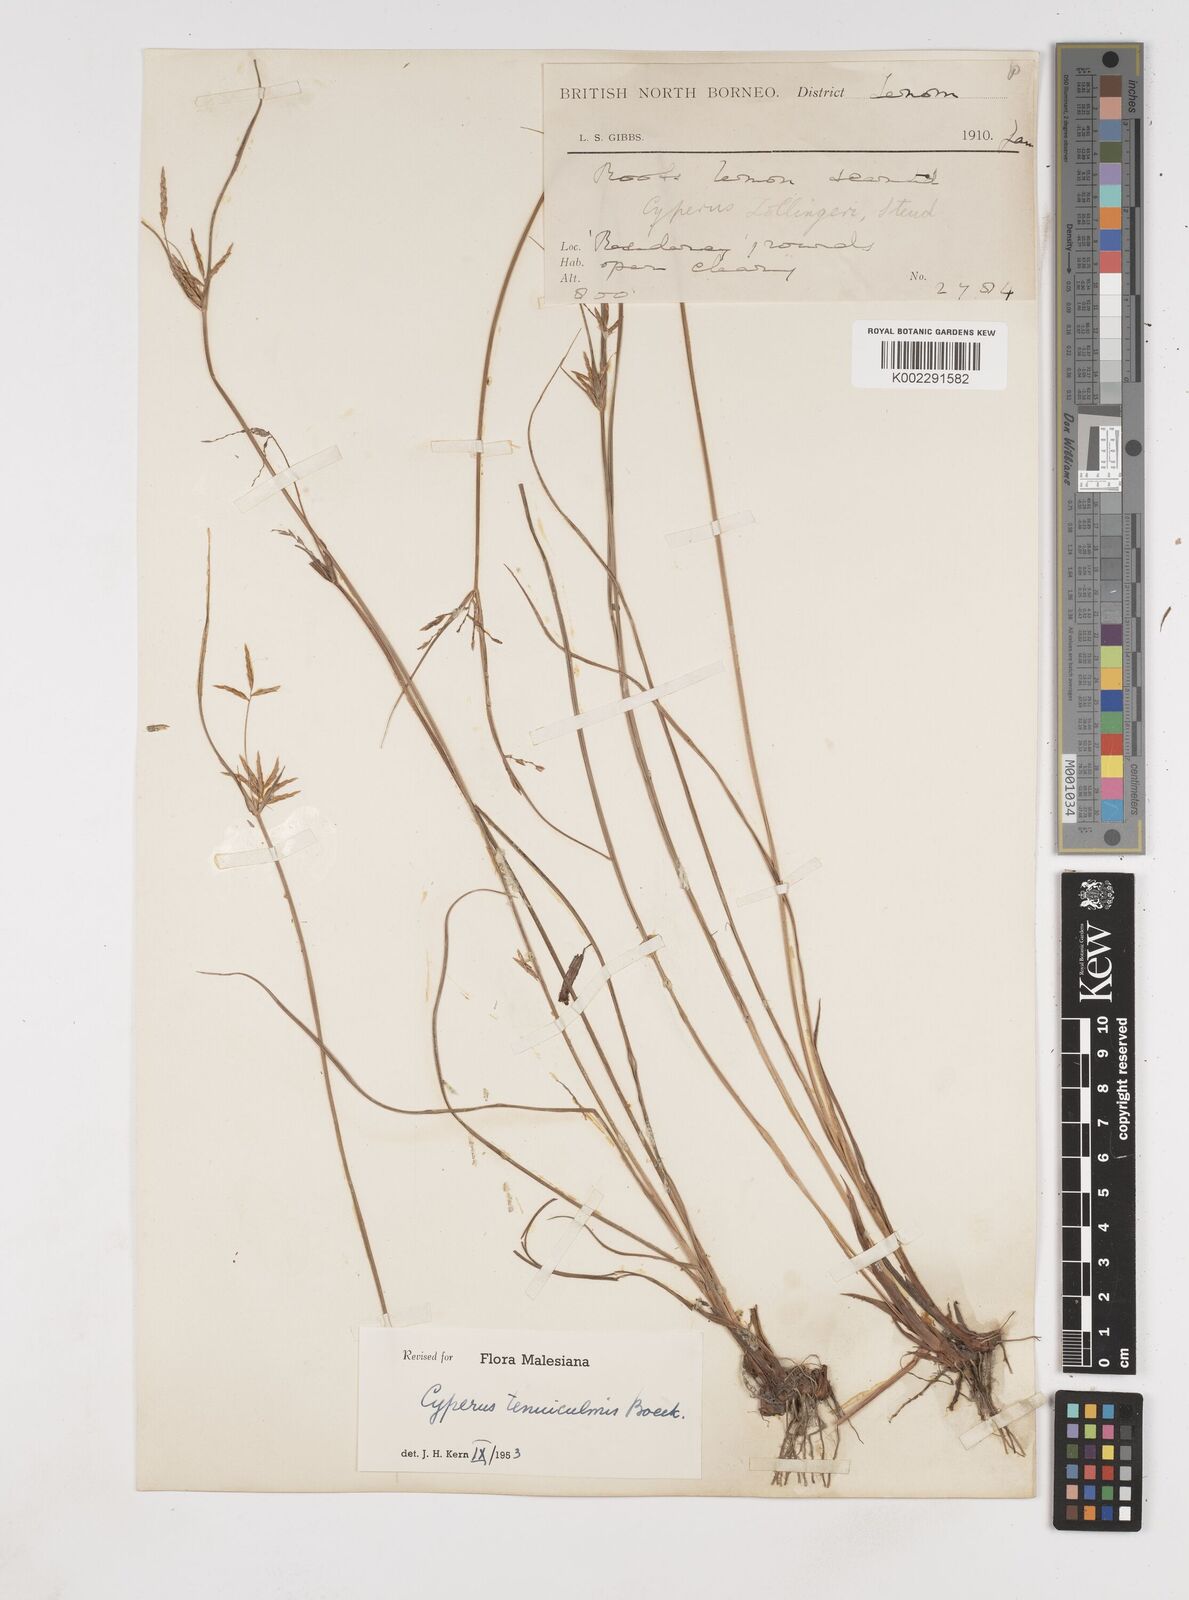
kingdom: Plantae
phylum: Tracheophyta
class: Liliopsida
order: Poales
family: Cyperaceae
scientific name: Cyperaceae
